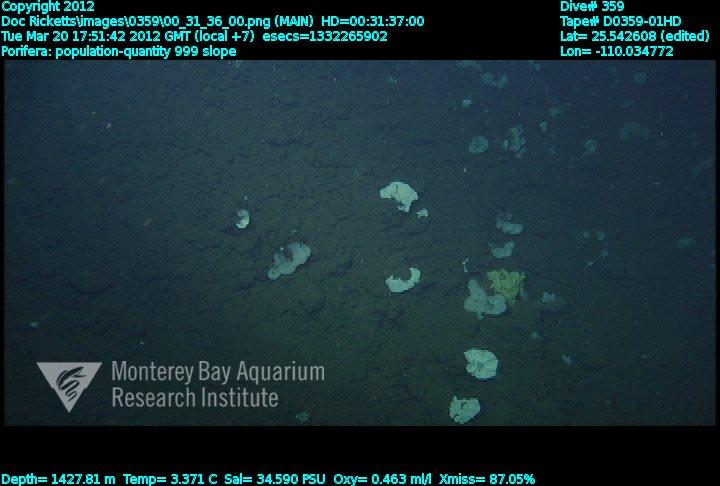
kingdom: Animalia
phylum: Porifera
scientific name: Porifera
